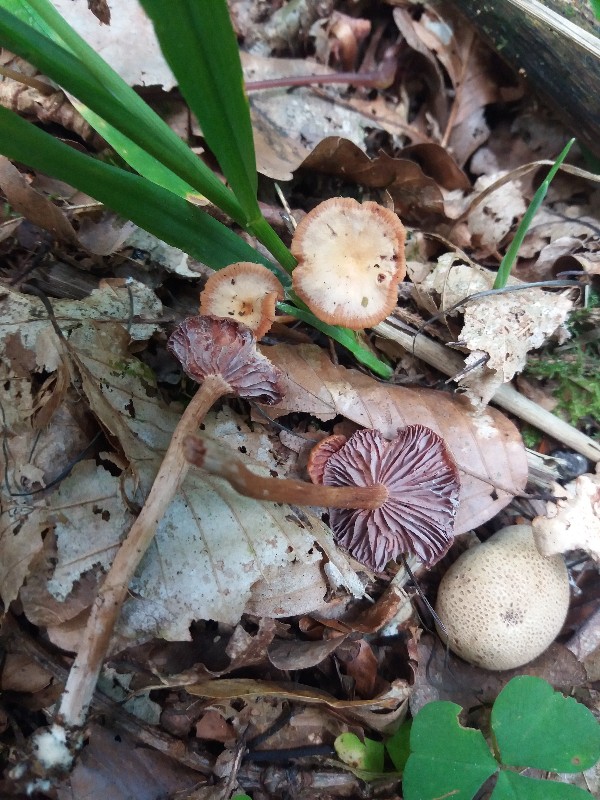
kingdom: Fungi
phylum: Basidiomycota
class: Agaricomycetes
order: Agaricales
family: Hydnangiaceae
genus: Laccaria
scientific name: Laccaria laccata
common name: rød ametysthat
